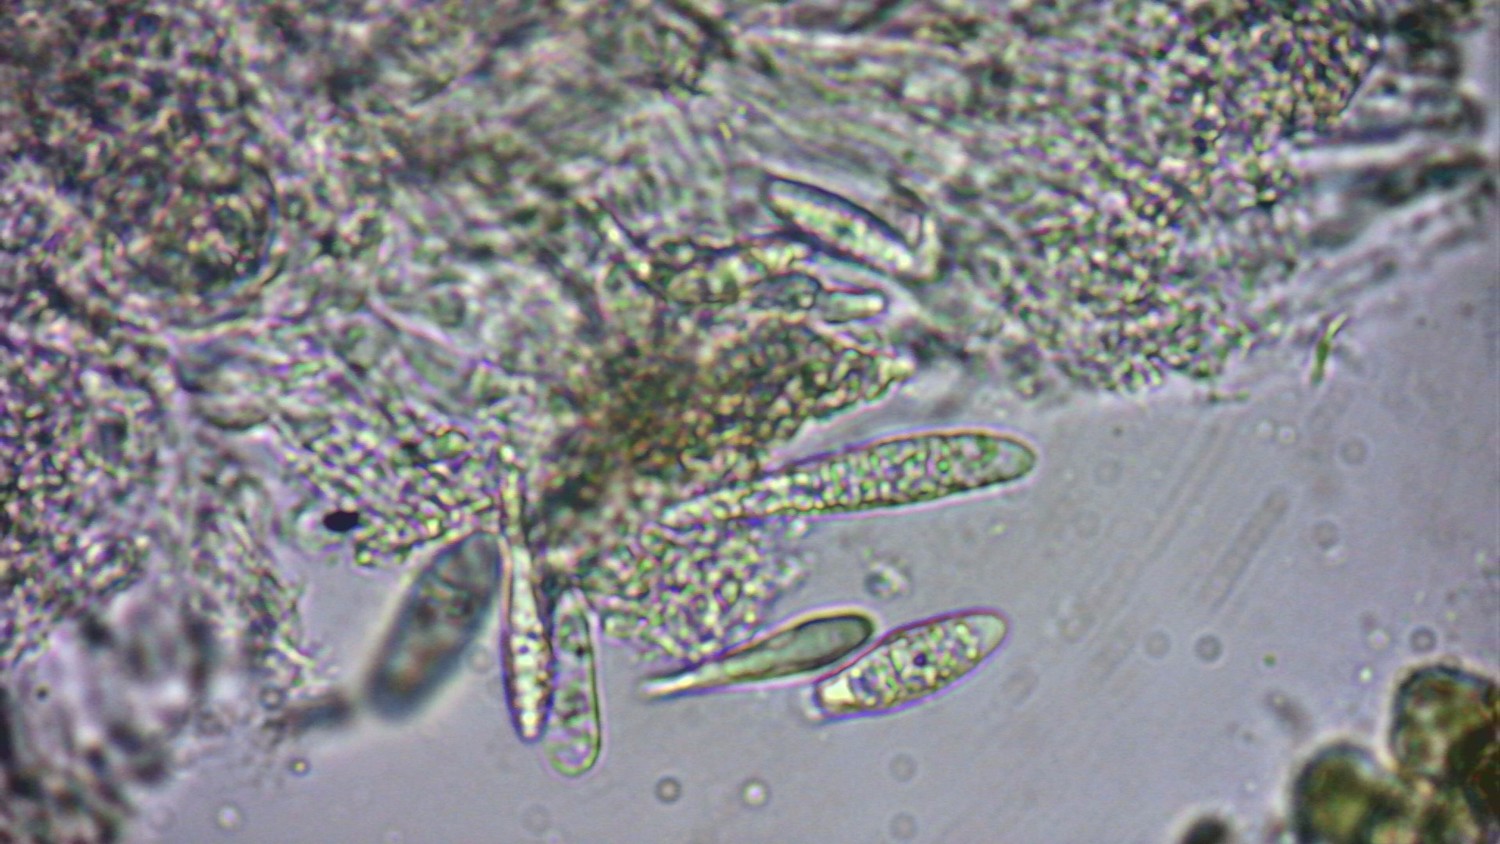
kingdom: Fungi
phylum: Ascomycota
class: Lecanoromycetes
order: Ostropales
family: Stictidaceae
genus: Karstenia
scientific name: Karstenia rhopaloides
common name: grårosa barkhul
